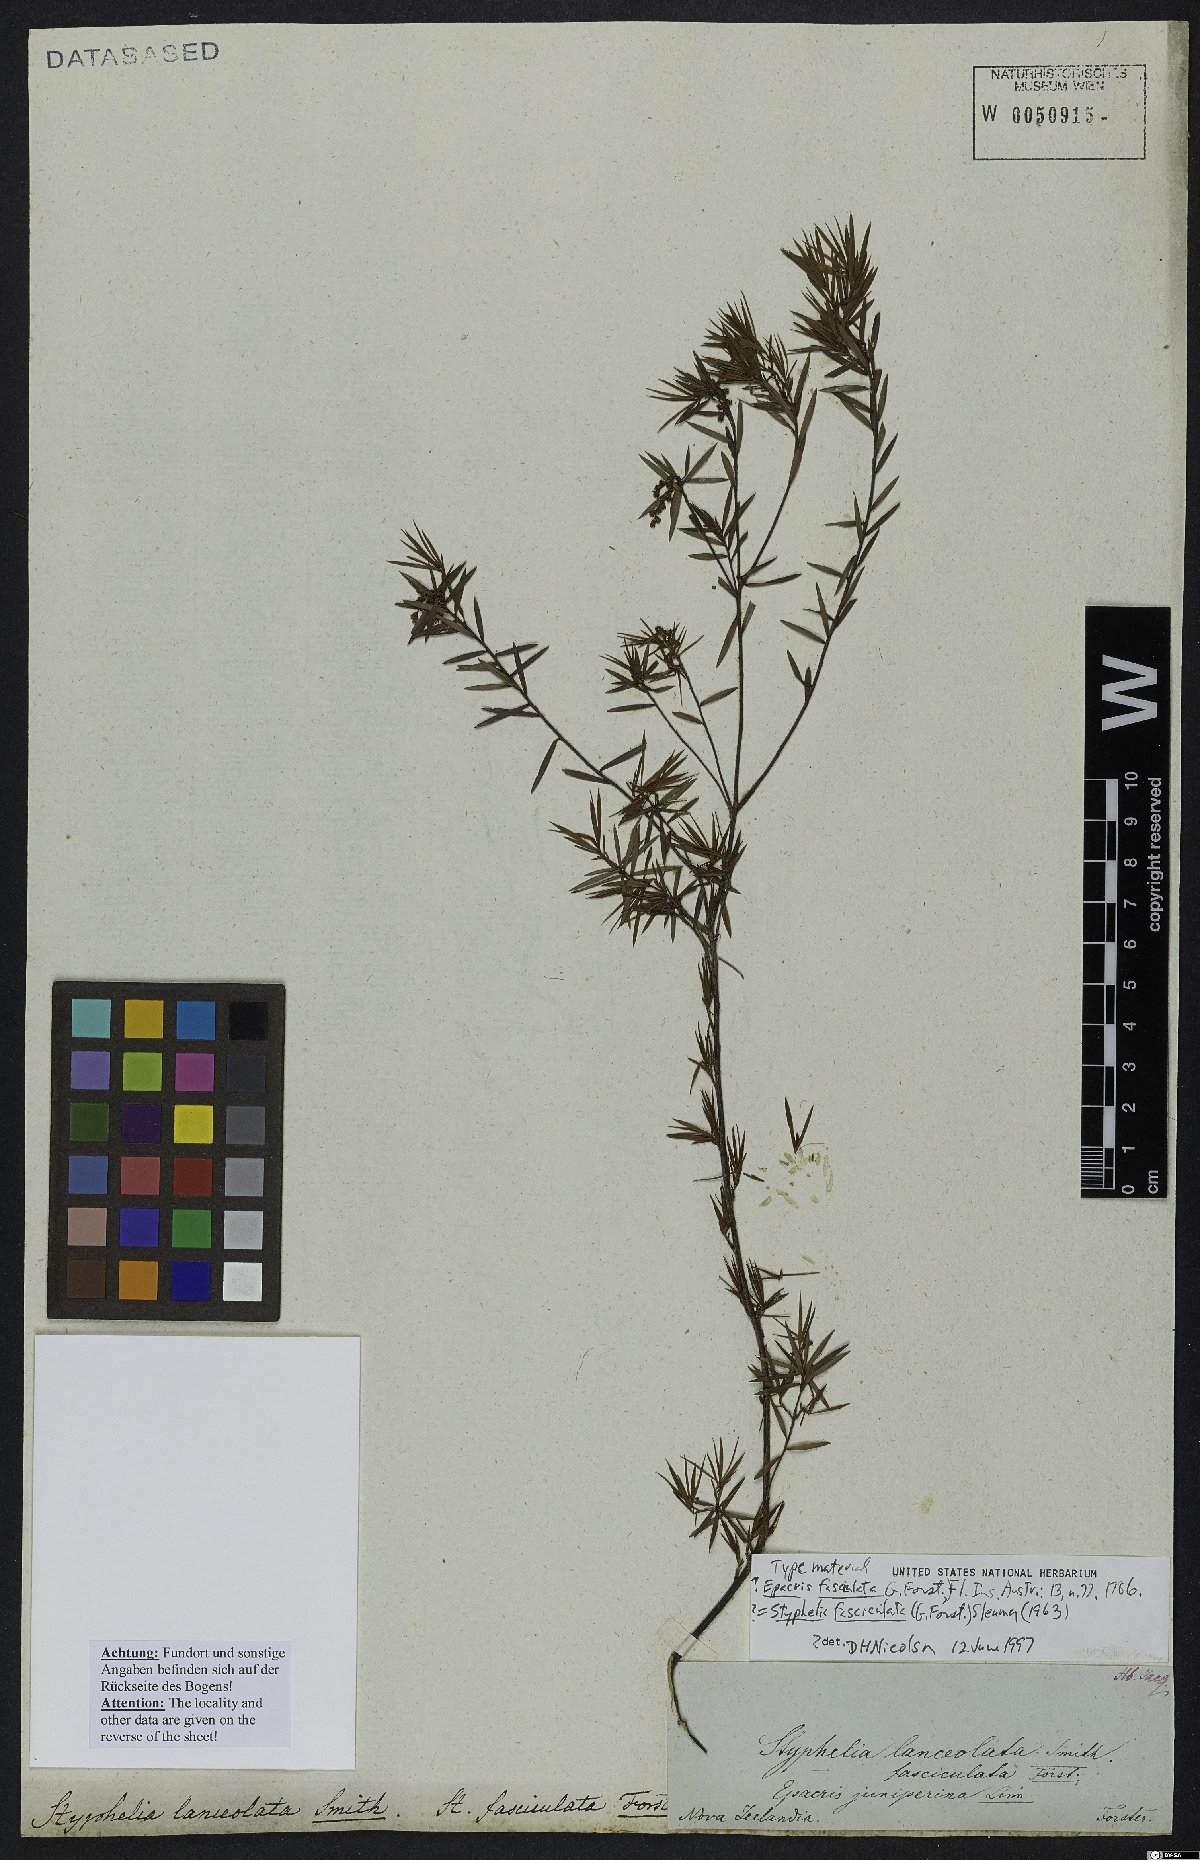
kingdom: Plantae
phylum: Tracheophyta
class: Magnoliopsida
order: Ericales
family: Ericaceae
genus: Leucopogon
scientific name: Leucopogon fasciculatus
